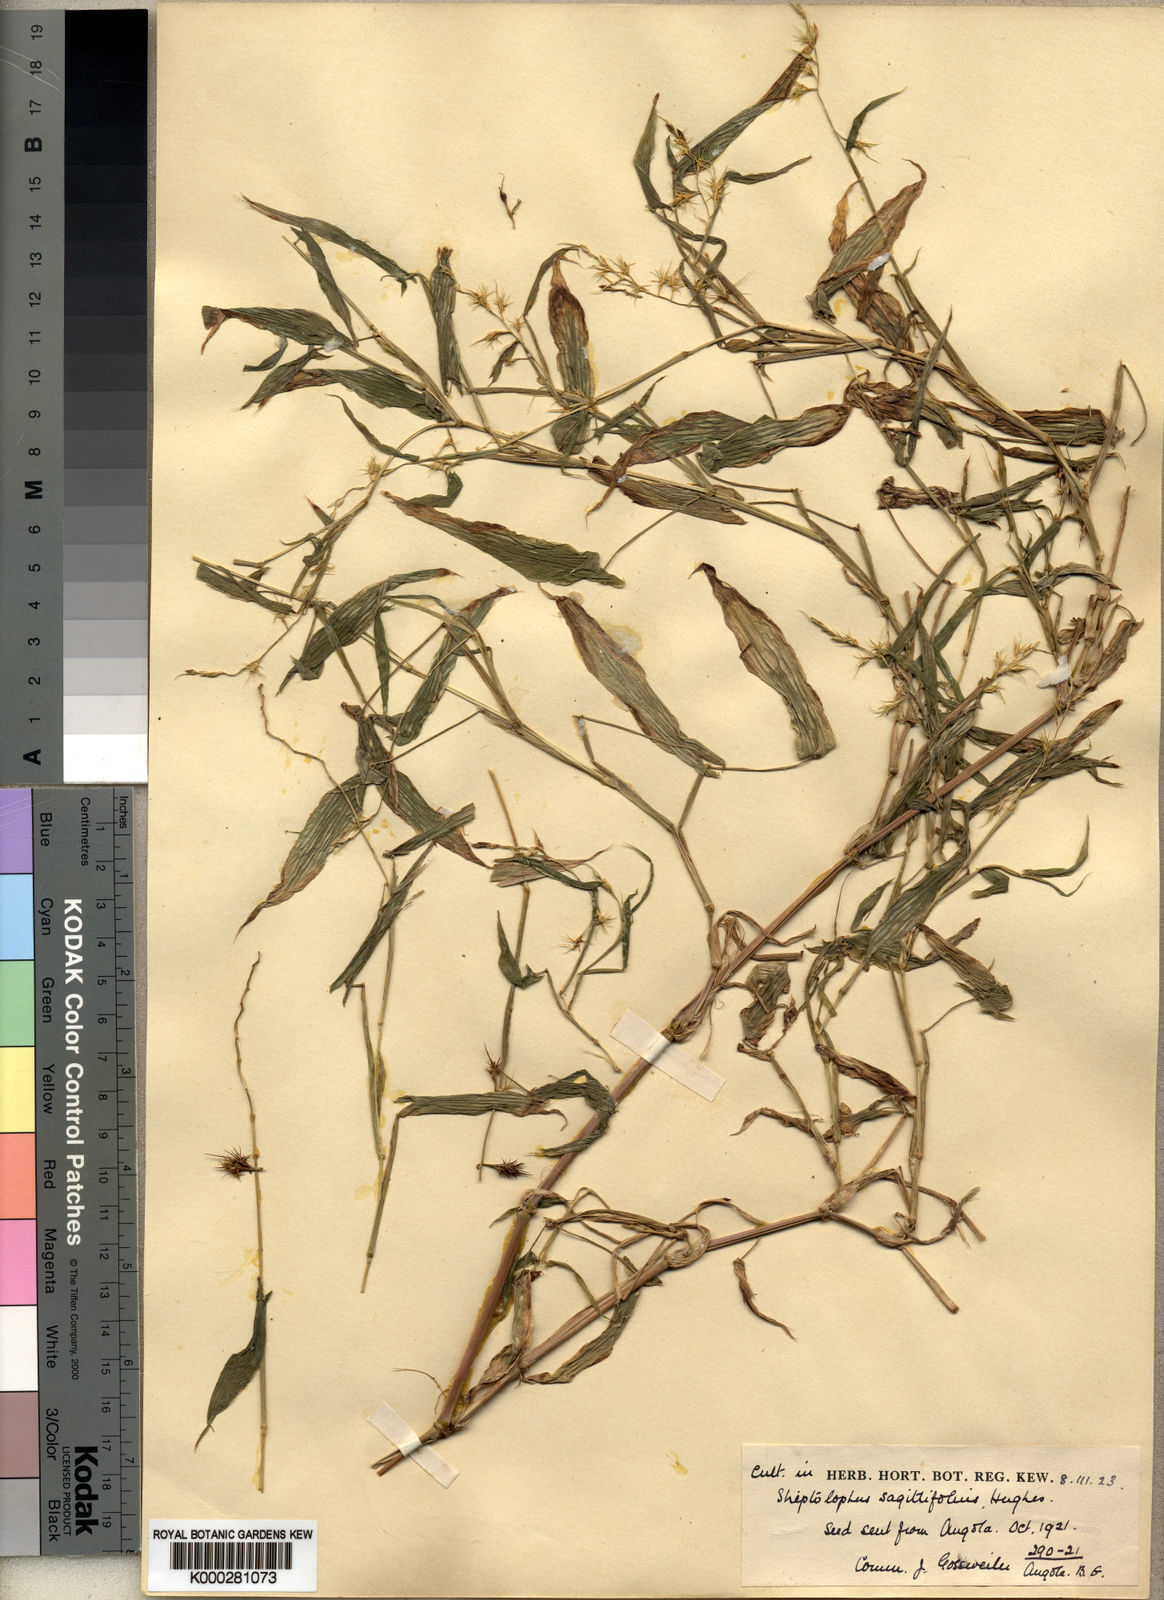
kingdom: Plantae
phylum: Tracheophyta
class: Liliopsida
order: Poales
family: Poaceae
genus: Streptolophus
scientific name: Streptolophus sagittifolius
